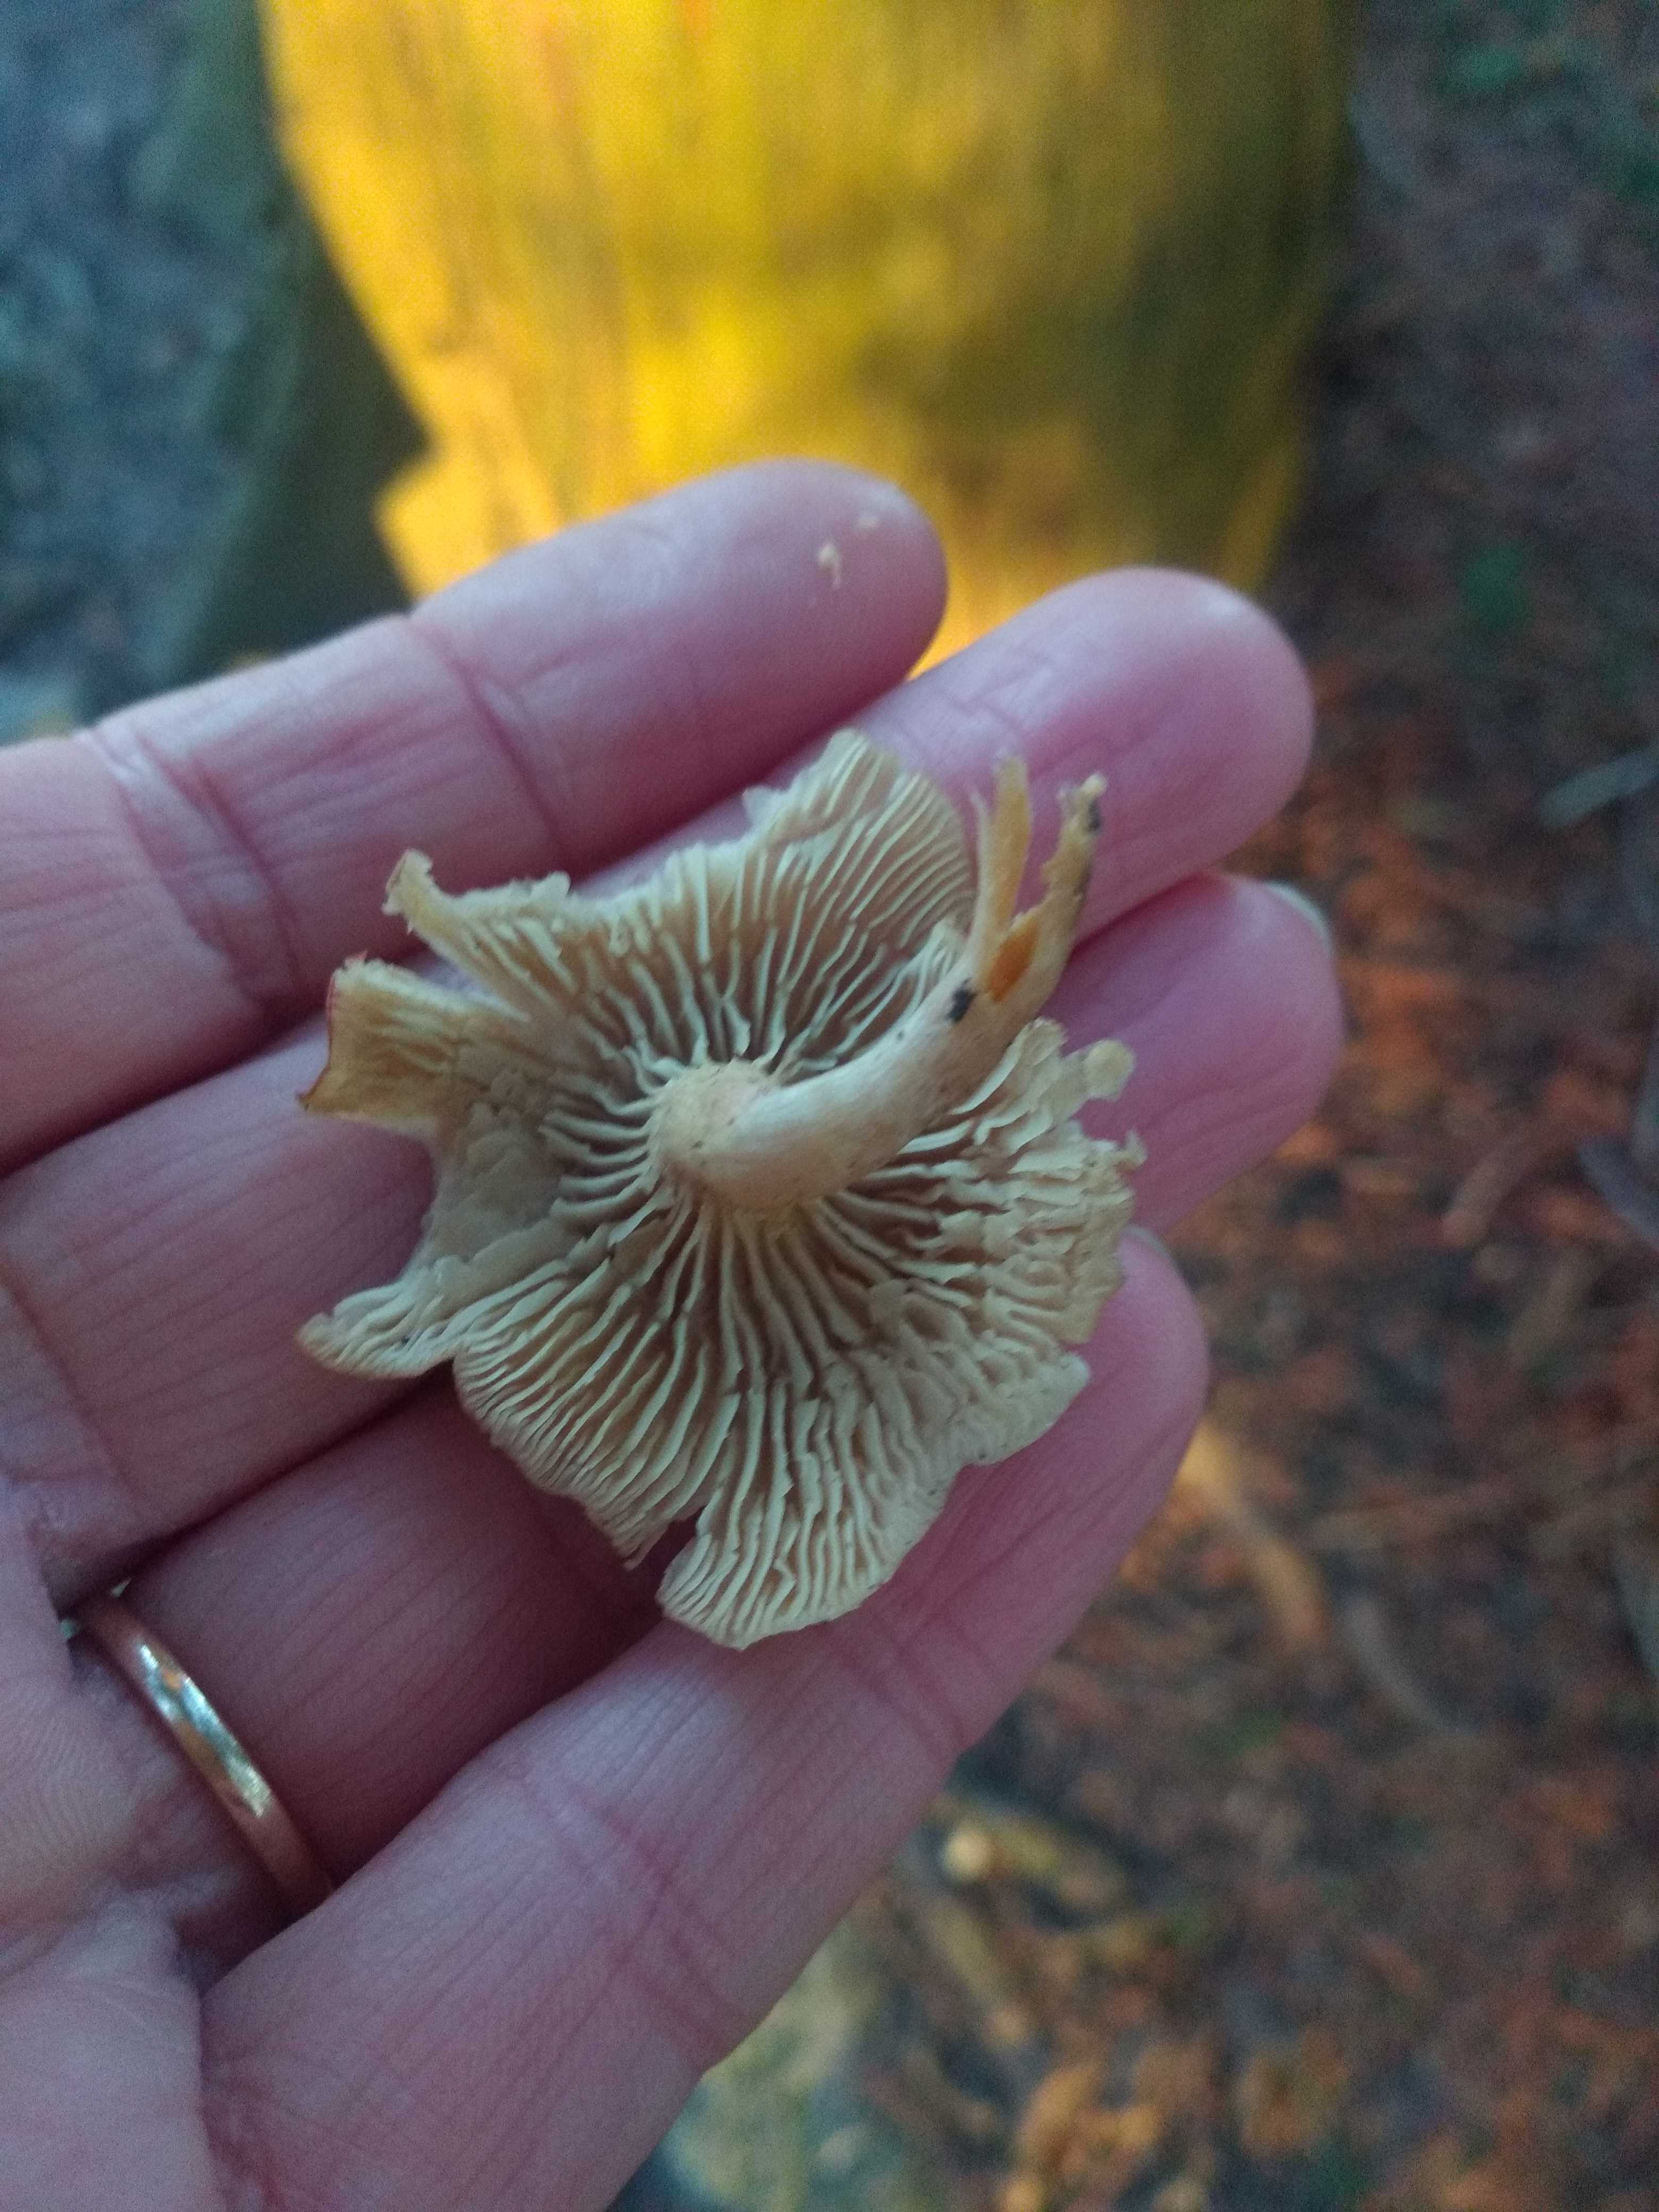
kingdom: Fungi
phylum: Basidiomycota
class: Agaricomycetes
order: Agaricales
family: Tricholomataceae
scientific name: Tricholomataceae
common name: ridderhatfamilien
